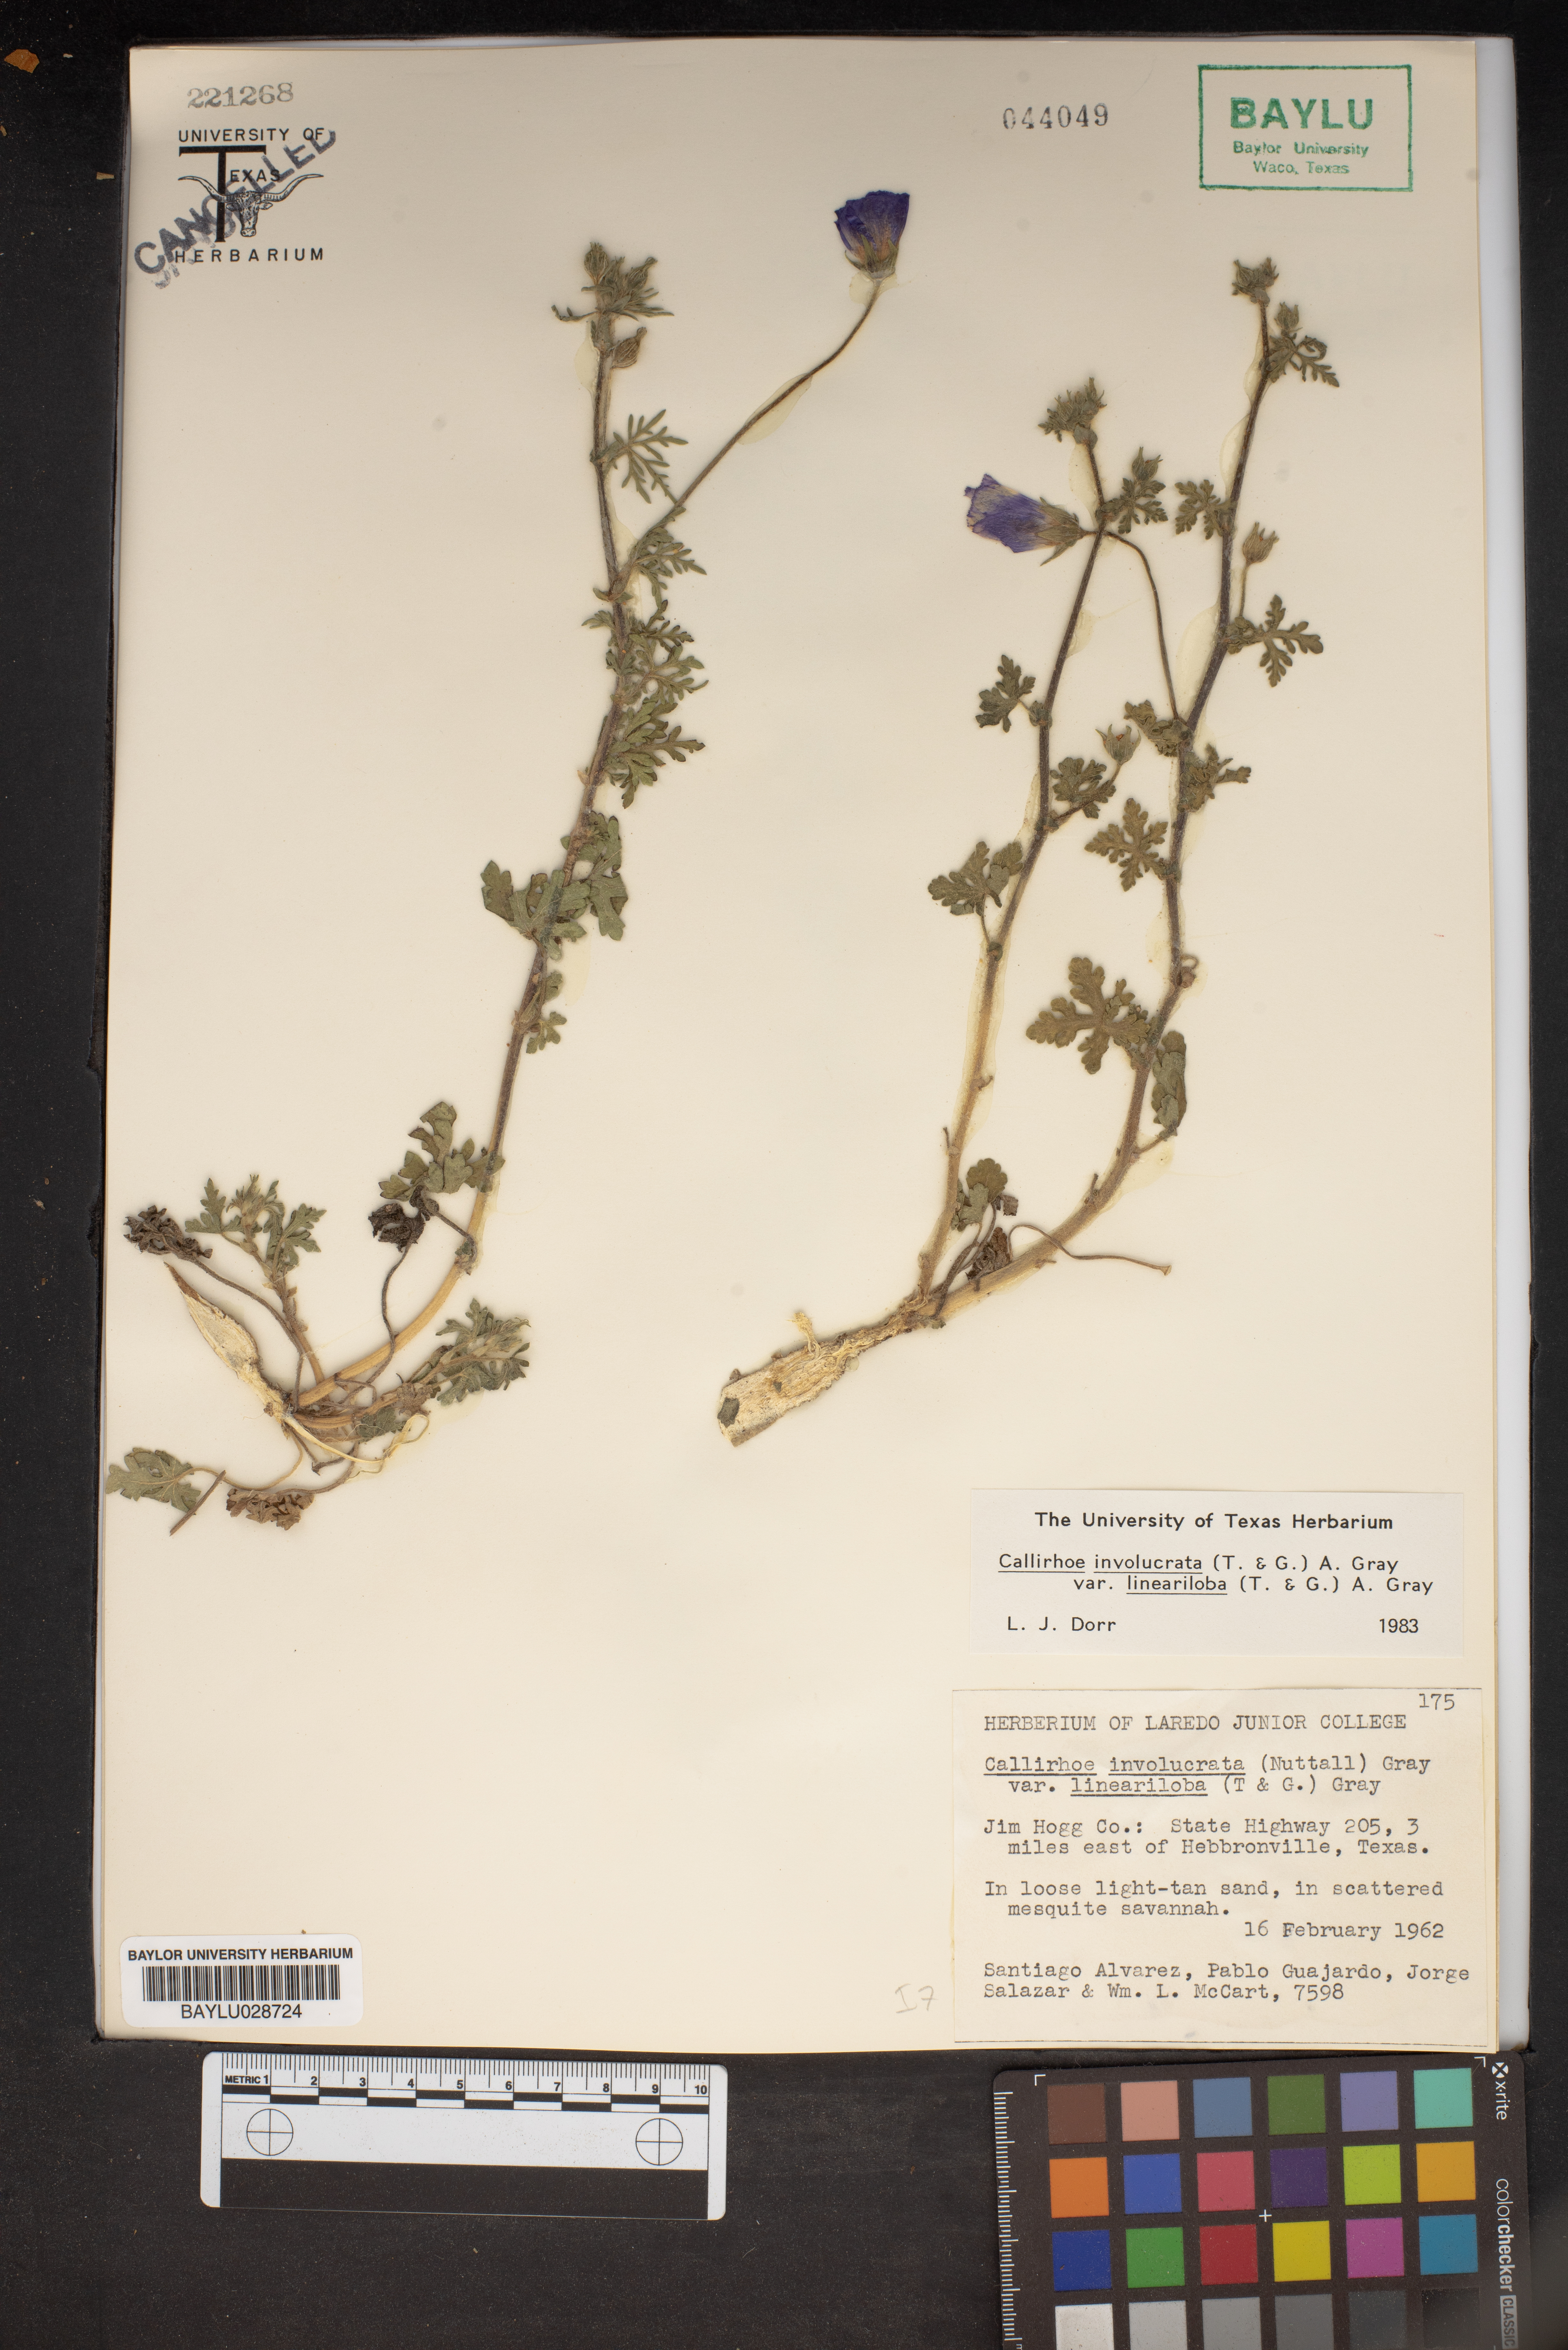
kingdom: Plantae
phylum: Tracheophyta
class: Magnoliopsida
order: Malvales
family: Malvaceae
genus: Callirhoe
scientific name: Callirhoe involucrata
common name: Purple poppy-mallow
